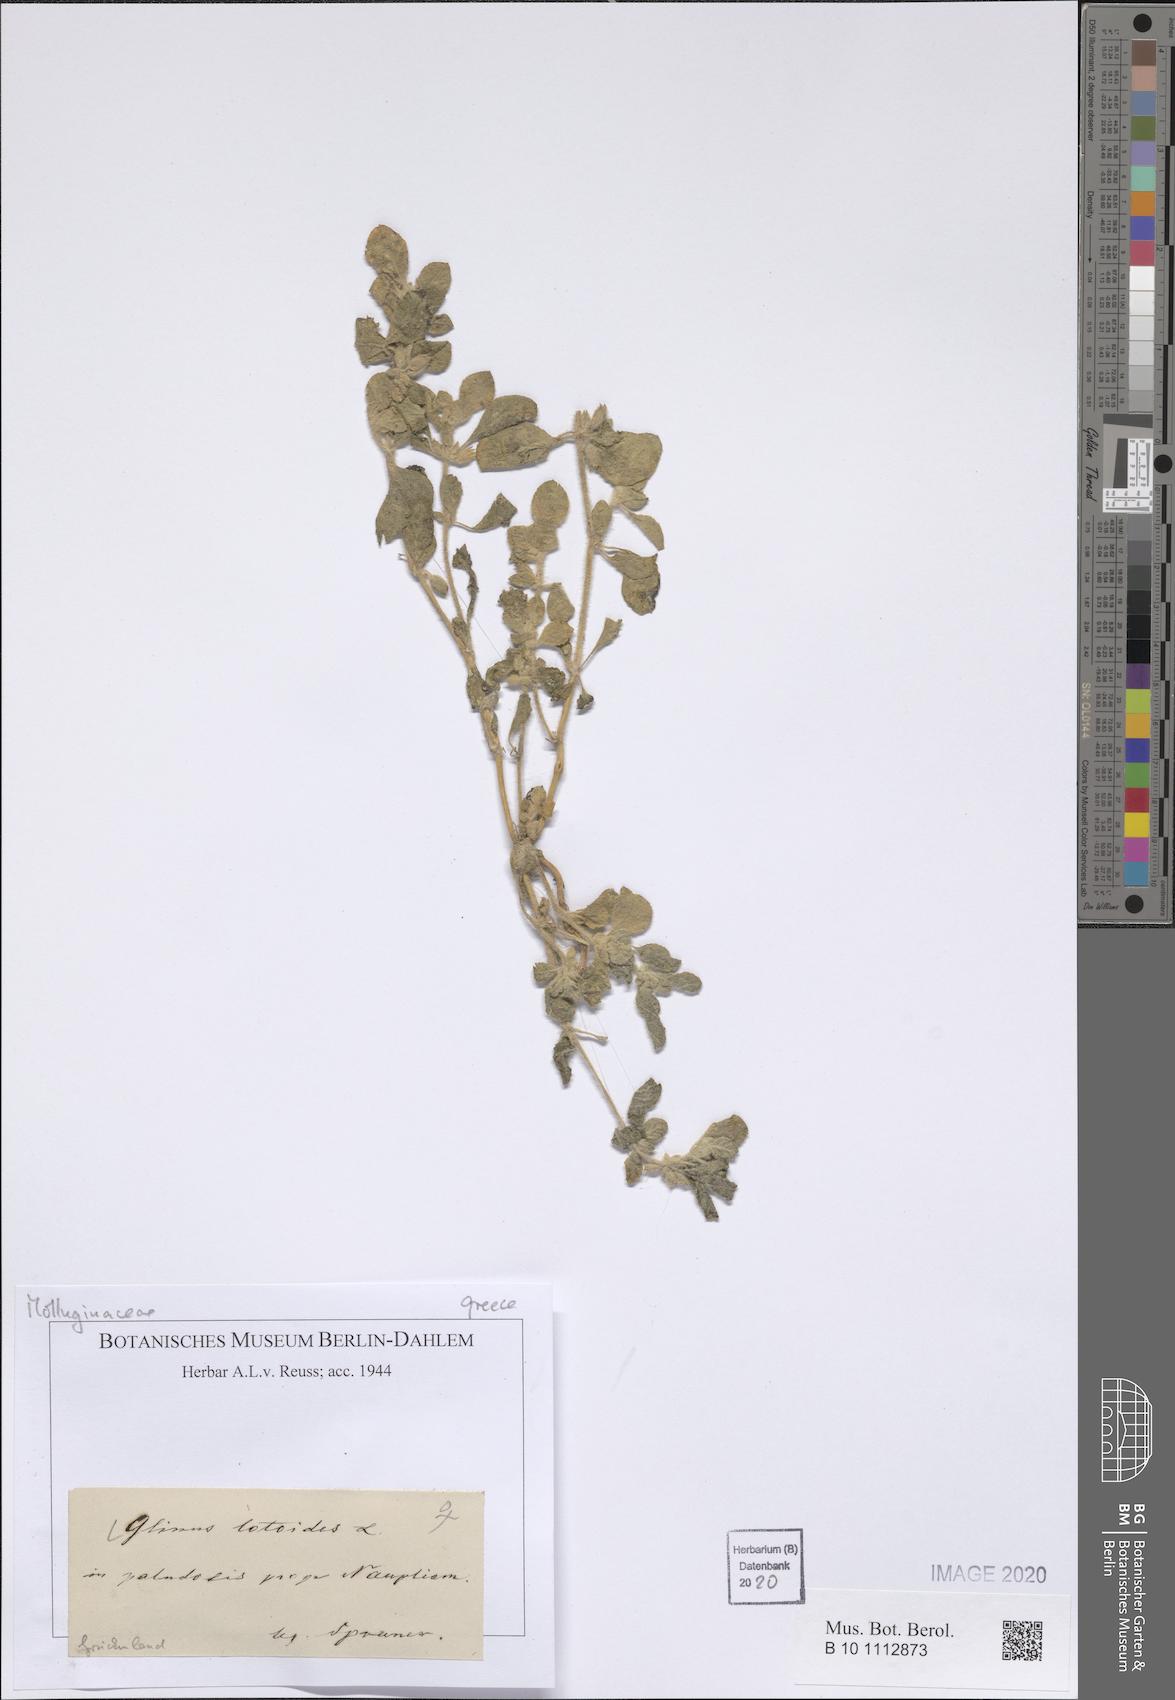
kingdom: Plantae
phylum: Tracheophyta
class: Magnoliopsida
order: Caryophyllales
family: Molluginaceae
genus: Glinus
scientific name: Glinus lotoides
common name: Lotus sweetjuice
